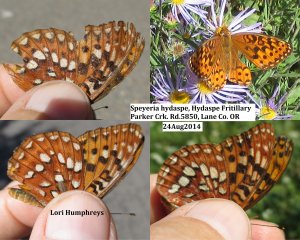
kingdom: Animalia
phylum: Arthropoda
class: Insecta
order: Lepidoptera
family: Nymphalidae
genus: Speyeria
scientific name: Speyeria hydaspe
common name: Hydaspe Fritillary
